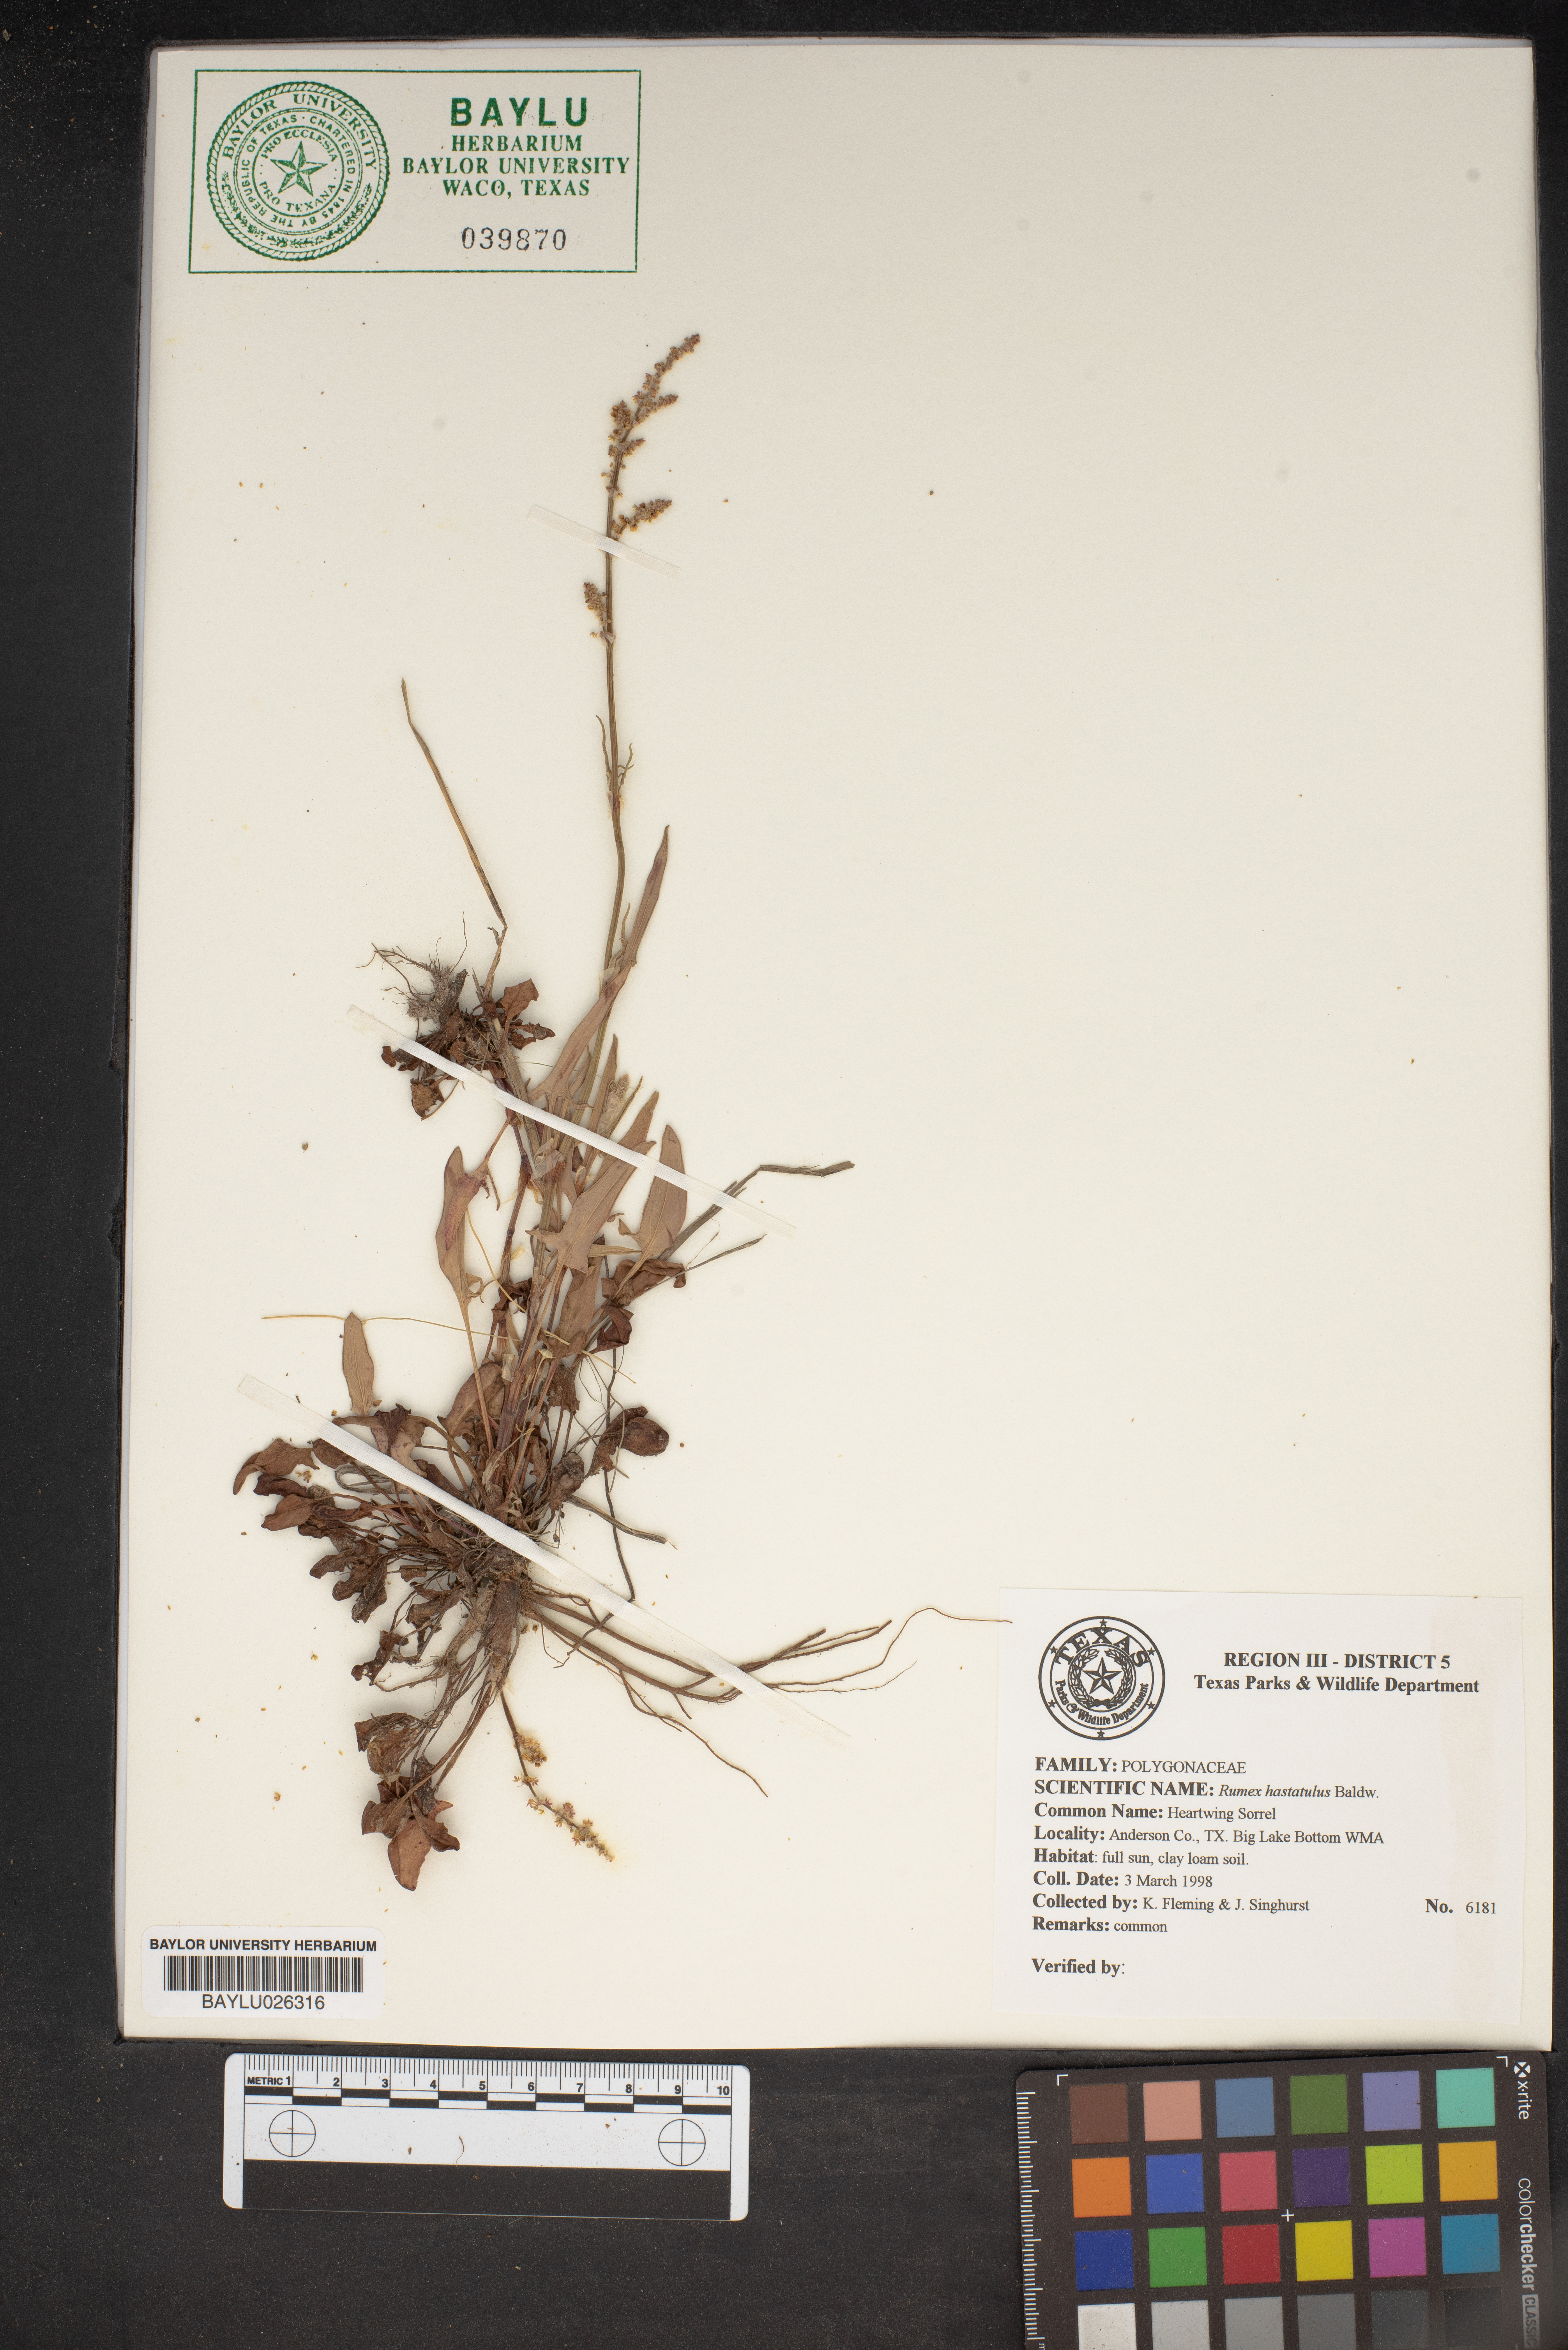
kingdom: Plantae
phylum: Tracheophyta
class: Magnoliopsida
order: Caryophyllales
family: Polygonaceae
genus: Rumex
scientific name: Rumex hastatulus
